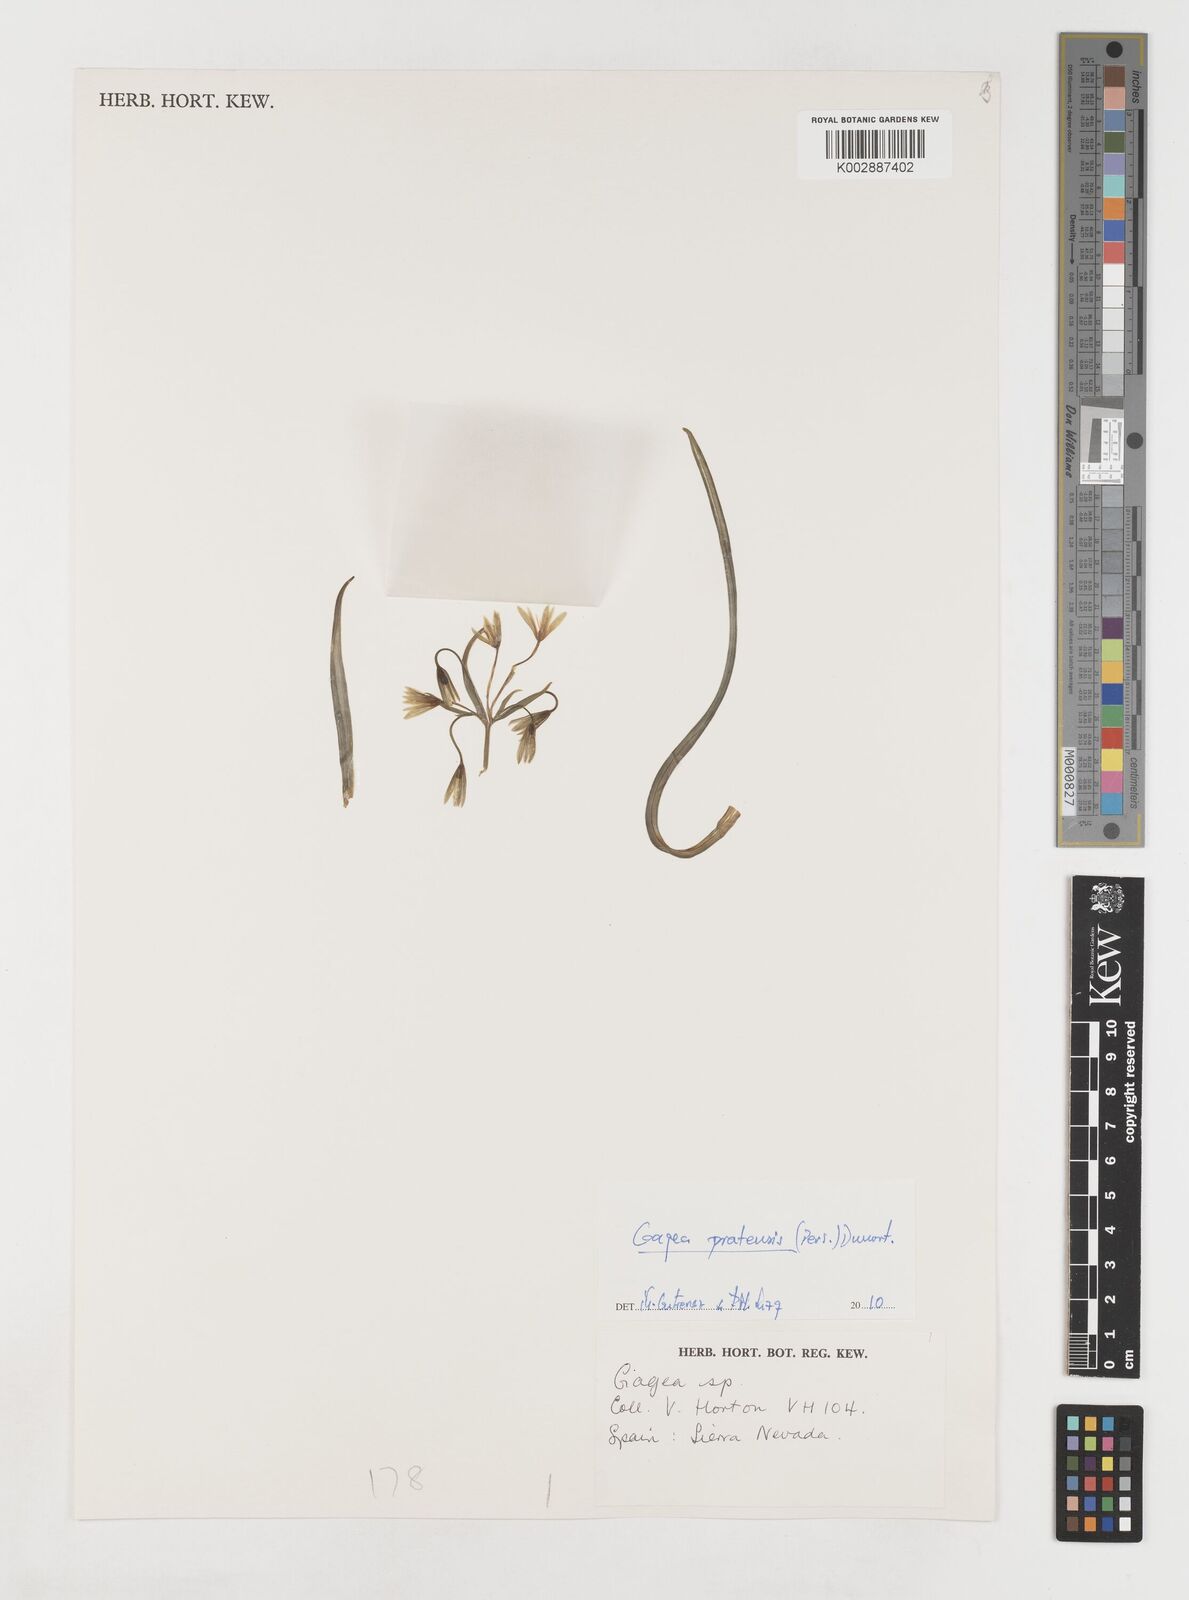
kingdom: Plantae
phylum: Tracheophyta
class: Liliopsida
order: Liliales
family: Liliaceae
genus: Gagea
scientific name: Gagea pratensis
